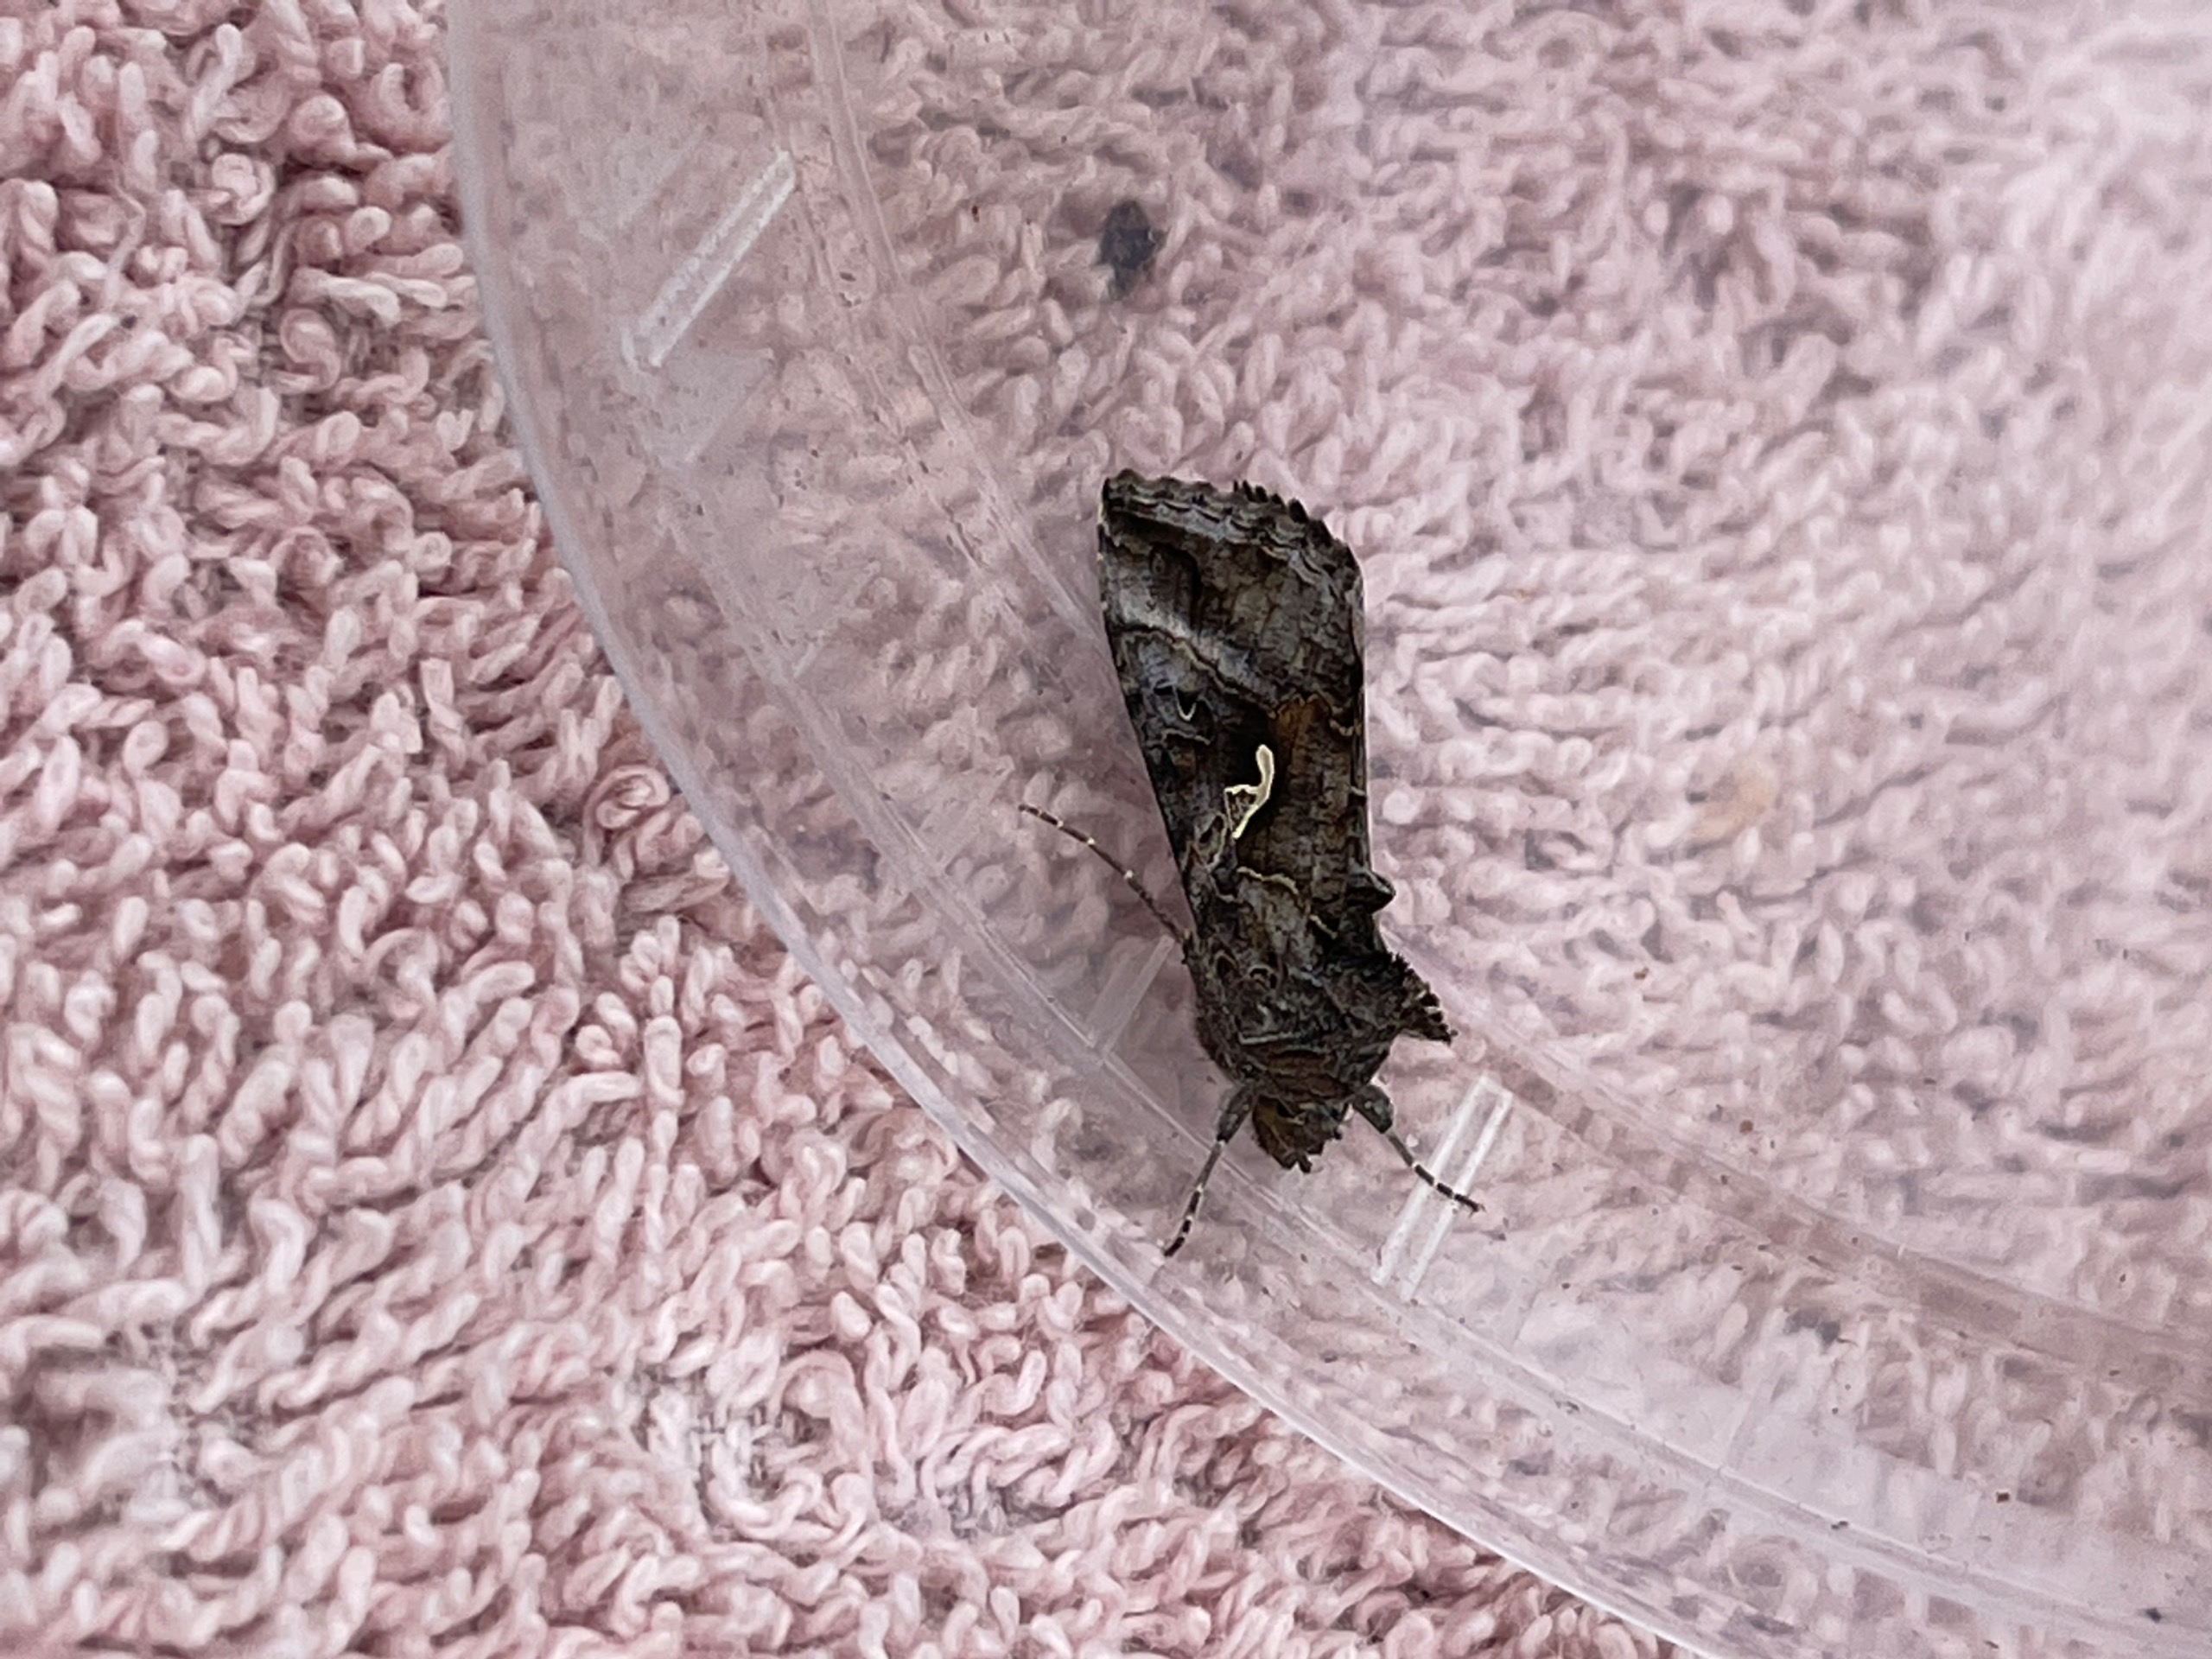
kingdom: Animalia
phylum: Arthropoda
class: Insecta
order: Lepidoptera
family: Noctuidae
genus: Autographa
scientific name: Autographa gamma
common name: Gammaugle
